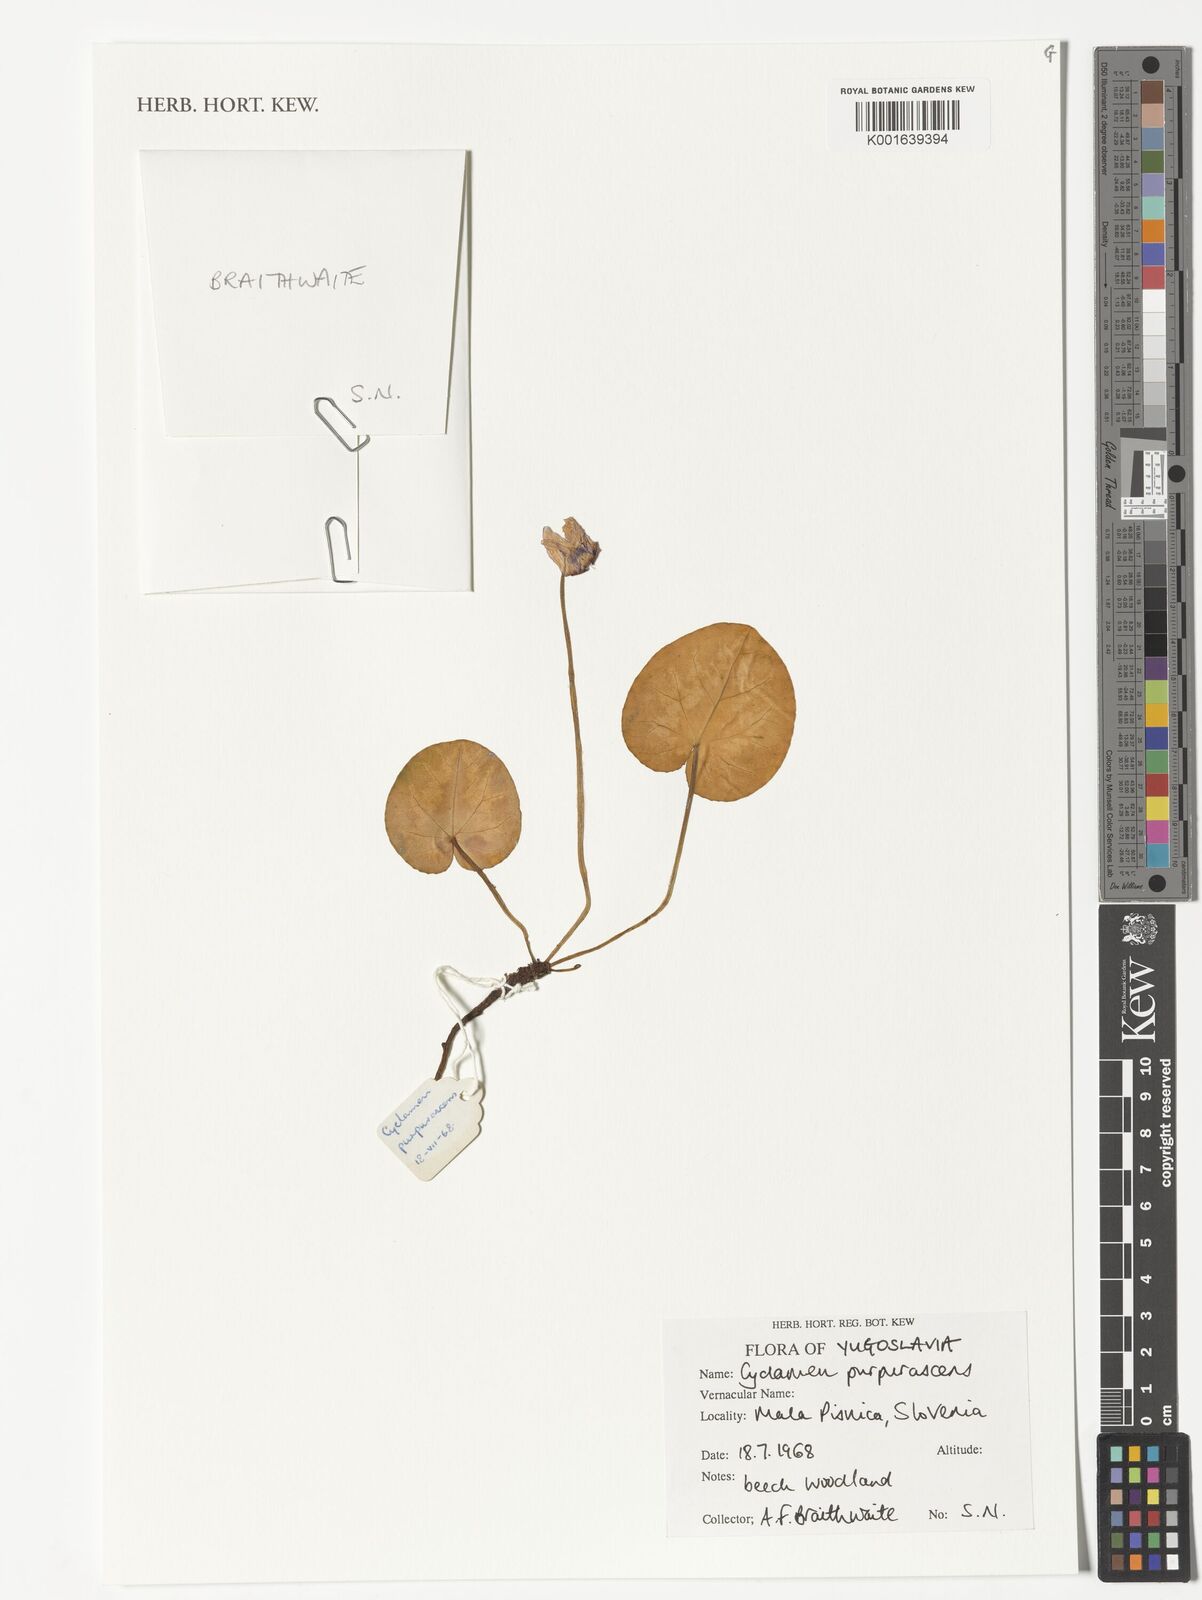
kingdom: Plantae
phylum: Tracheophyta
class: Magnoliopsida
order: Ericales
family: Primulaceae
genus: Cyclamen
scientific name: Cyclamen purpurascens
